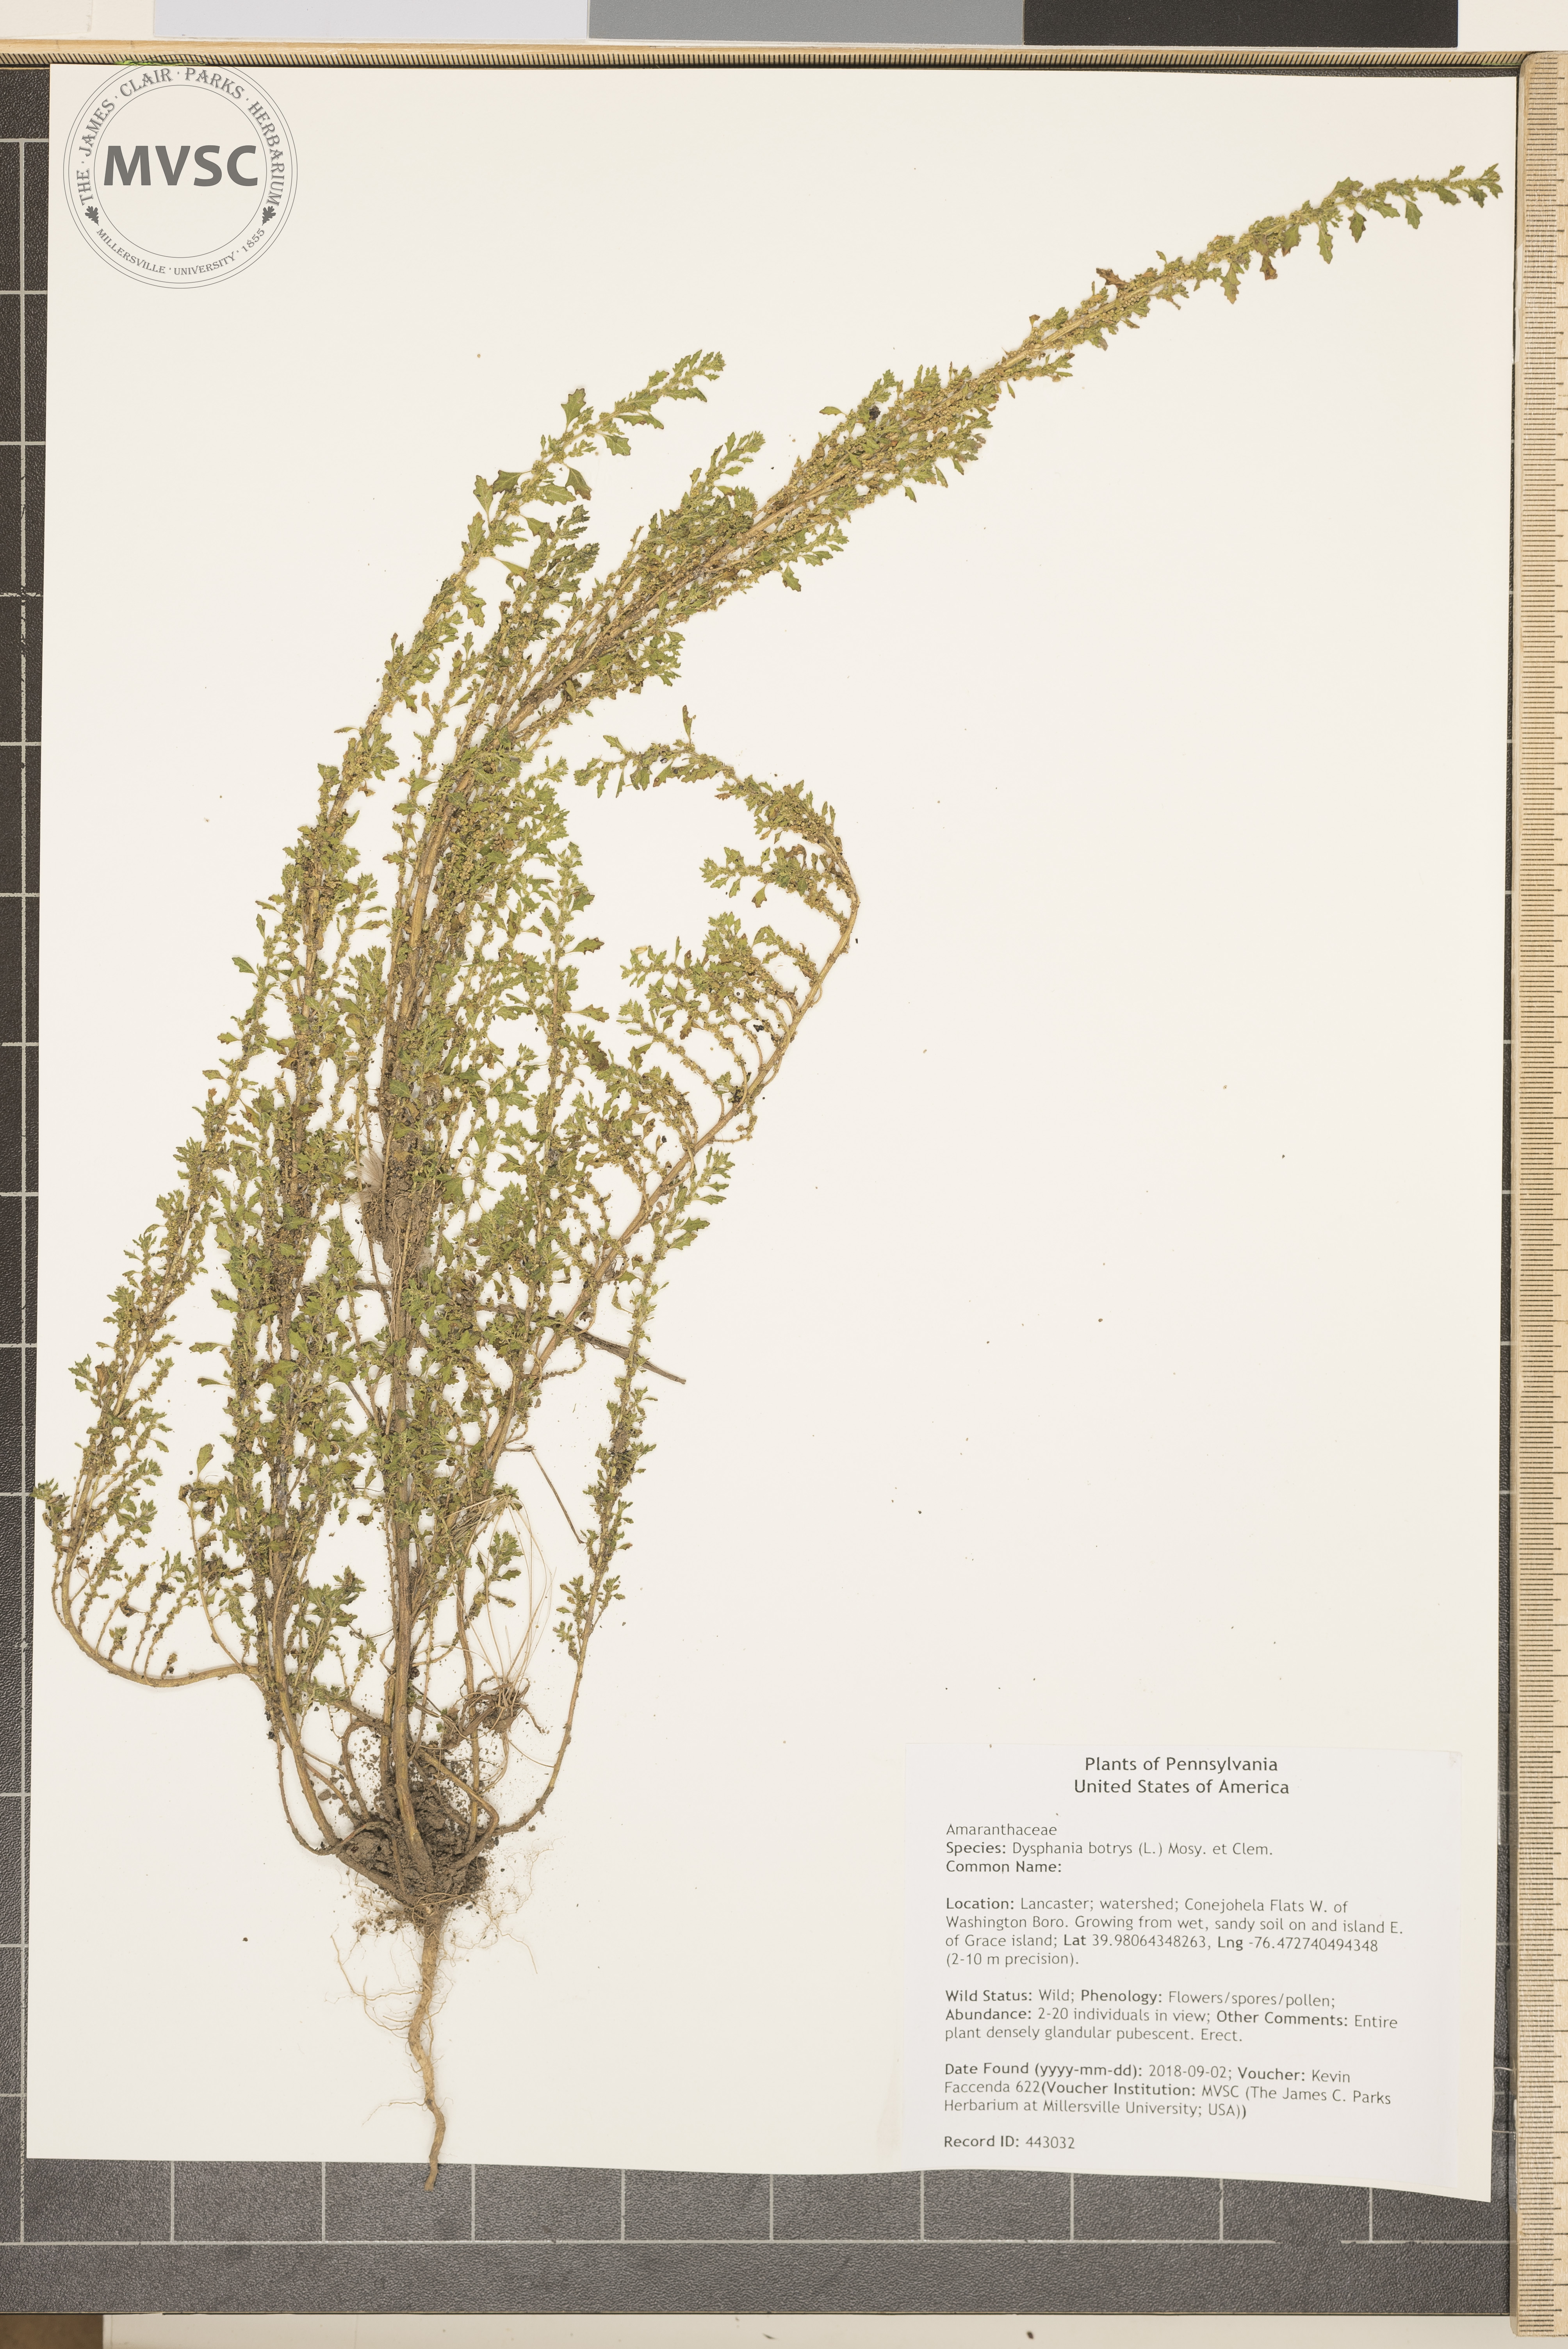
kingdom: Plantae
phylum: Tracheophyta
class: Magnoliopsida
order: Caryophyllales
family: Amaranthaceae
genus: Dysphania
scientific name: Dysphania pumilio
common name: Clammy goosefoot
